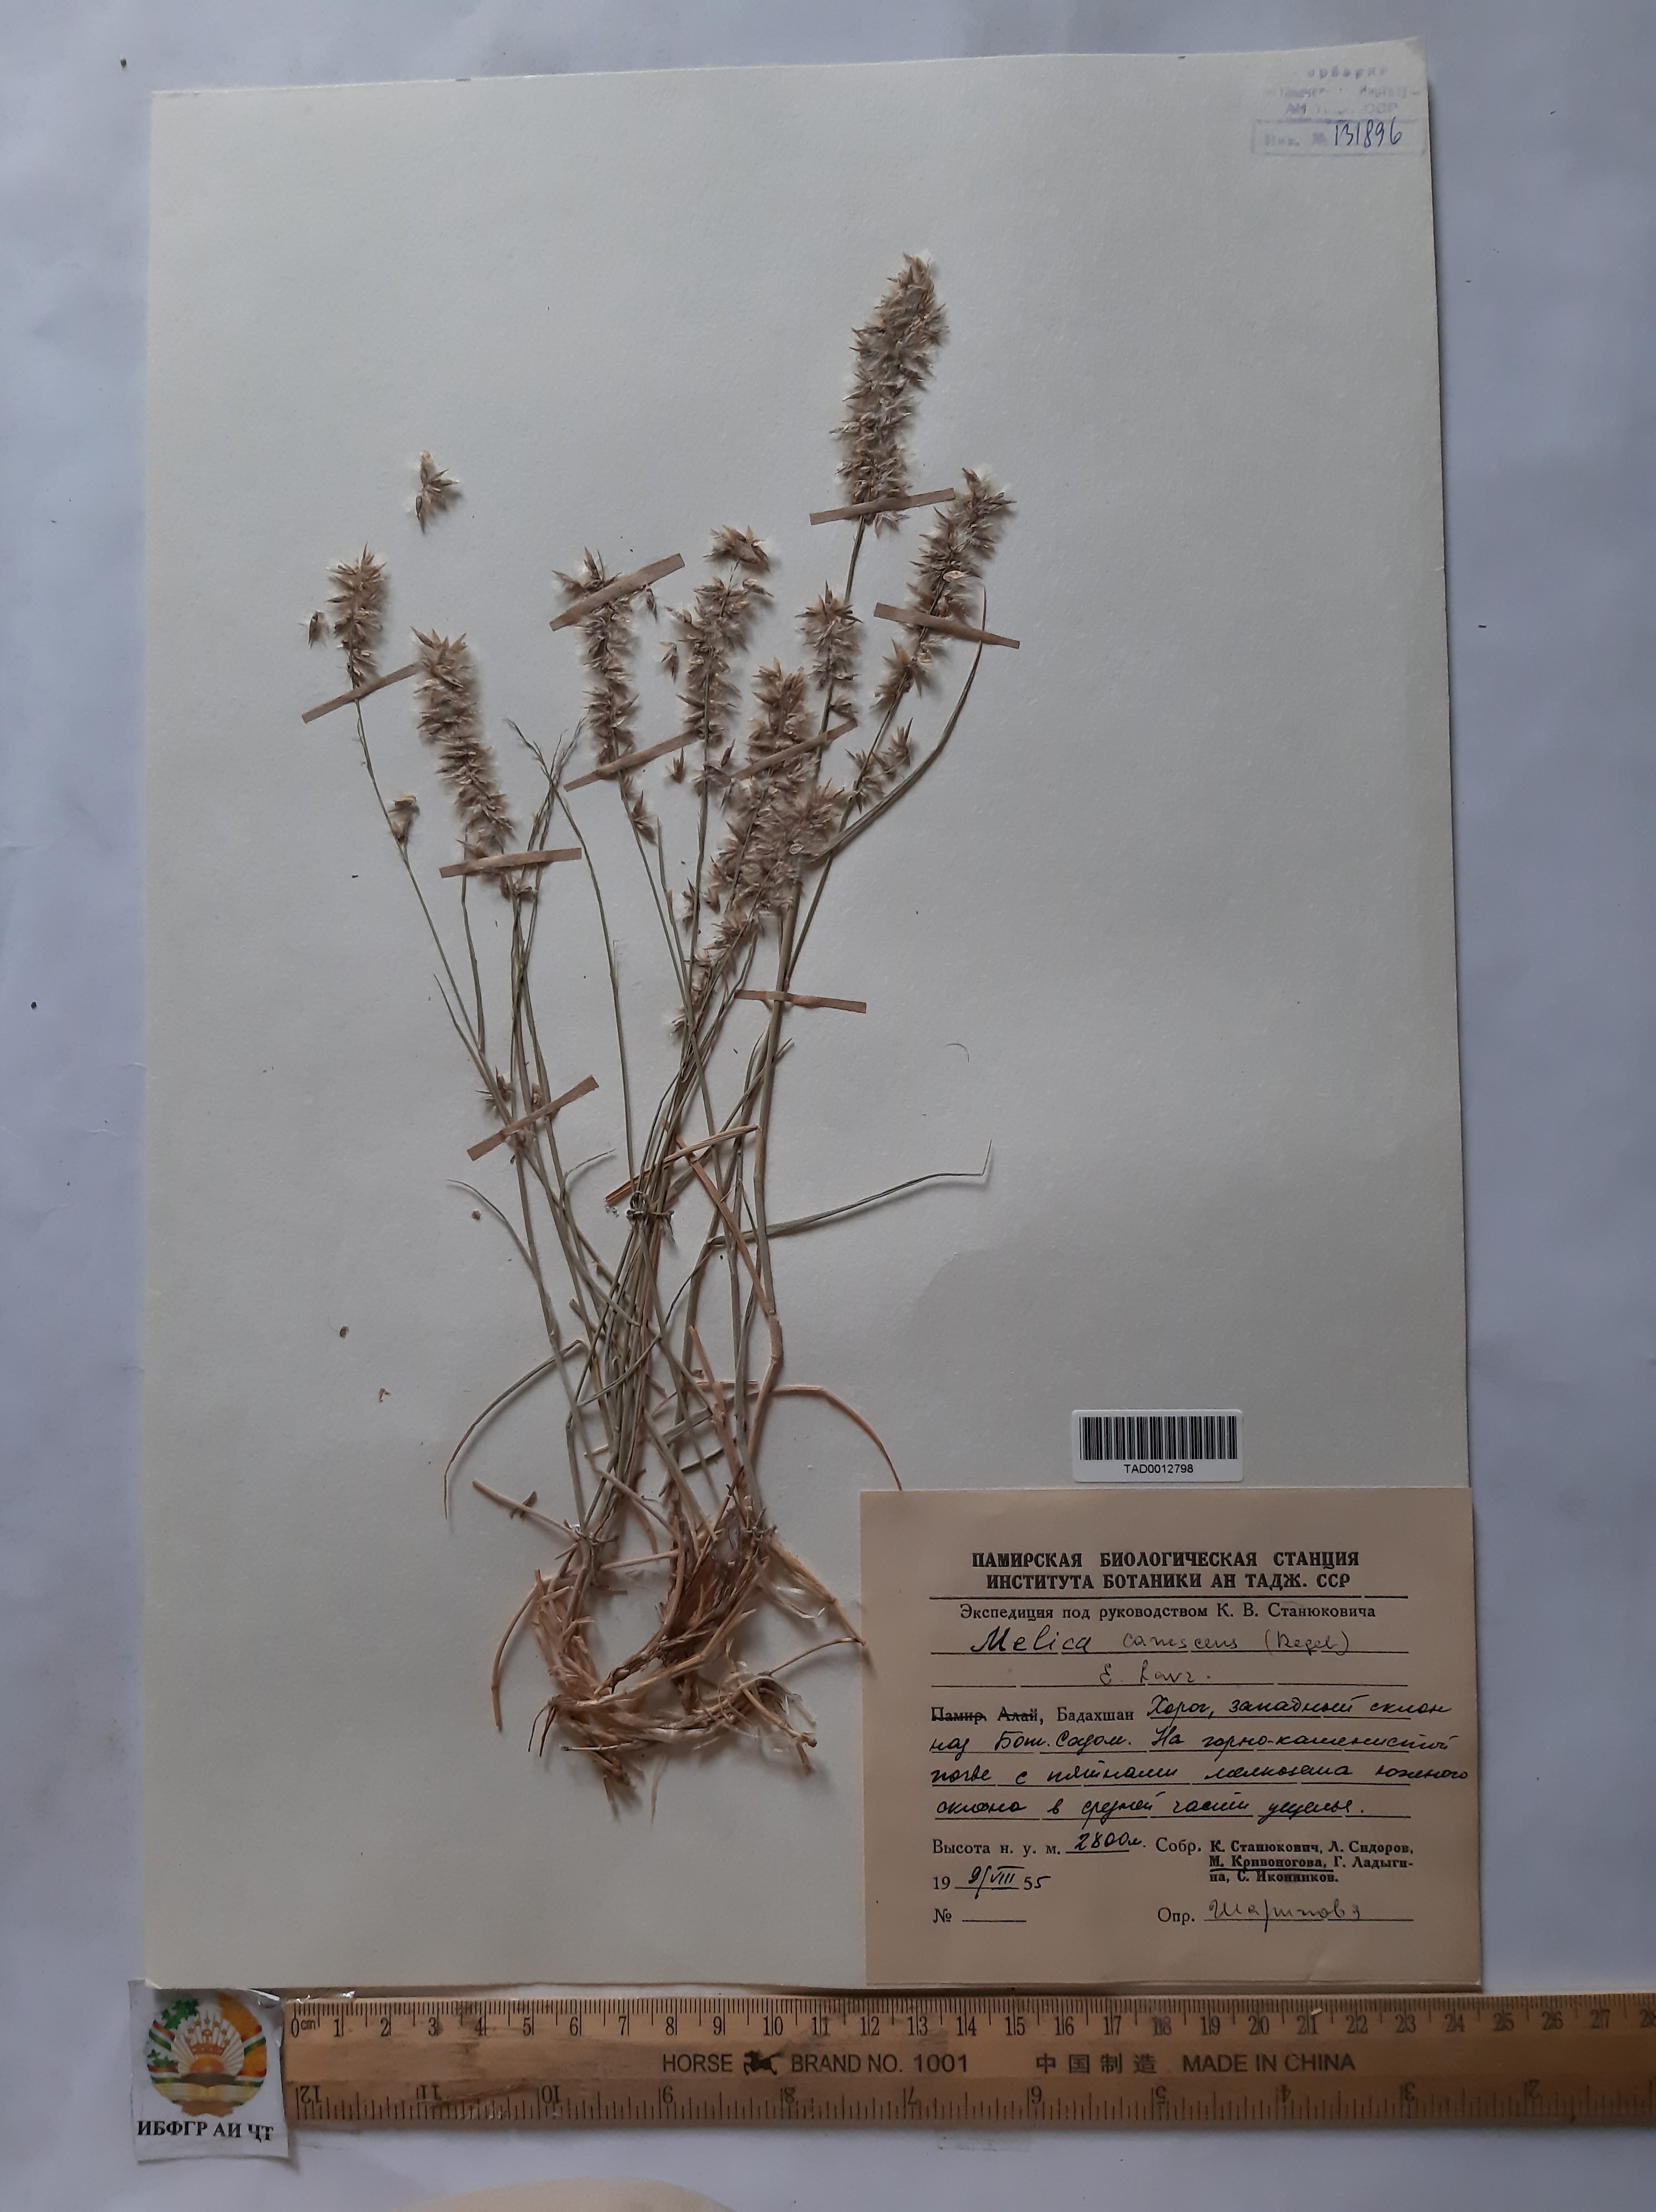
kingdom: Plantae
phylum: Tracheophyta
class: Liliopsida
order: Poales
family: Poaceae
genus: Melica
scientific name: Melica persica
